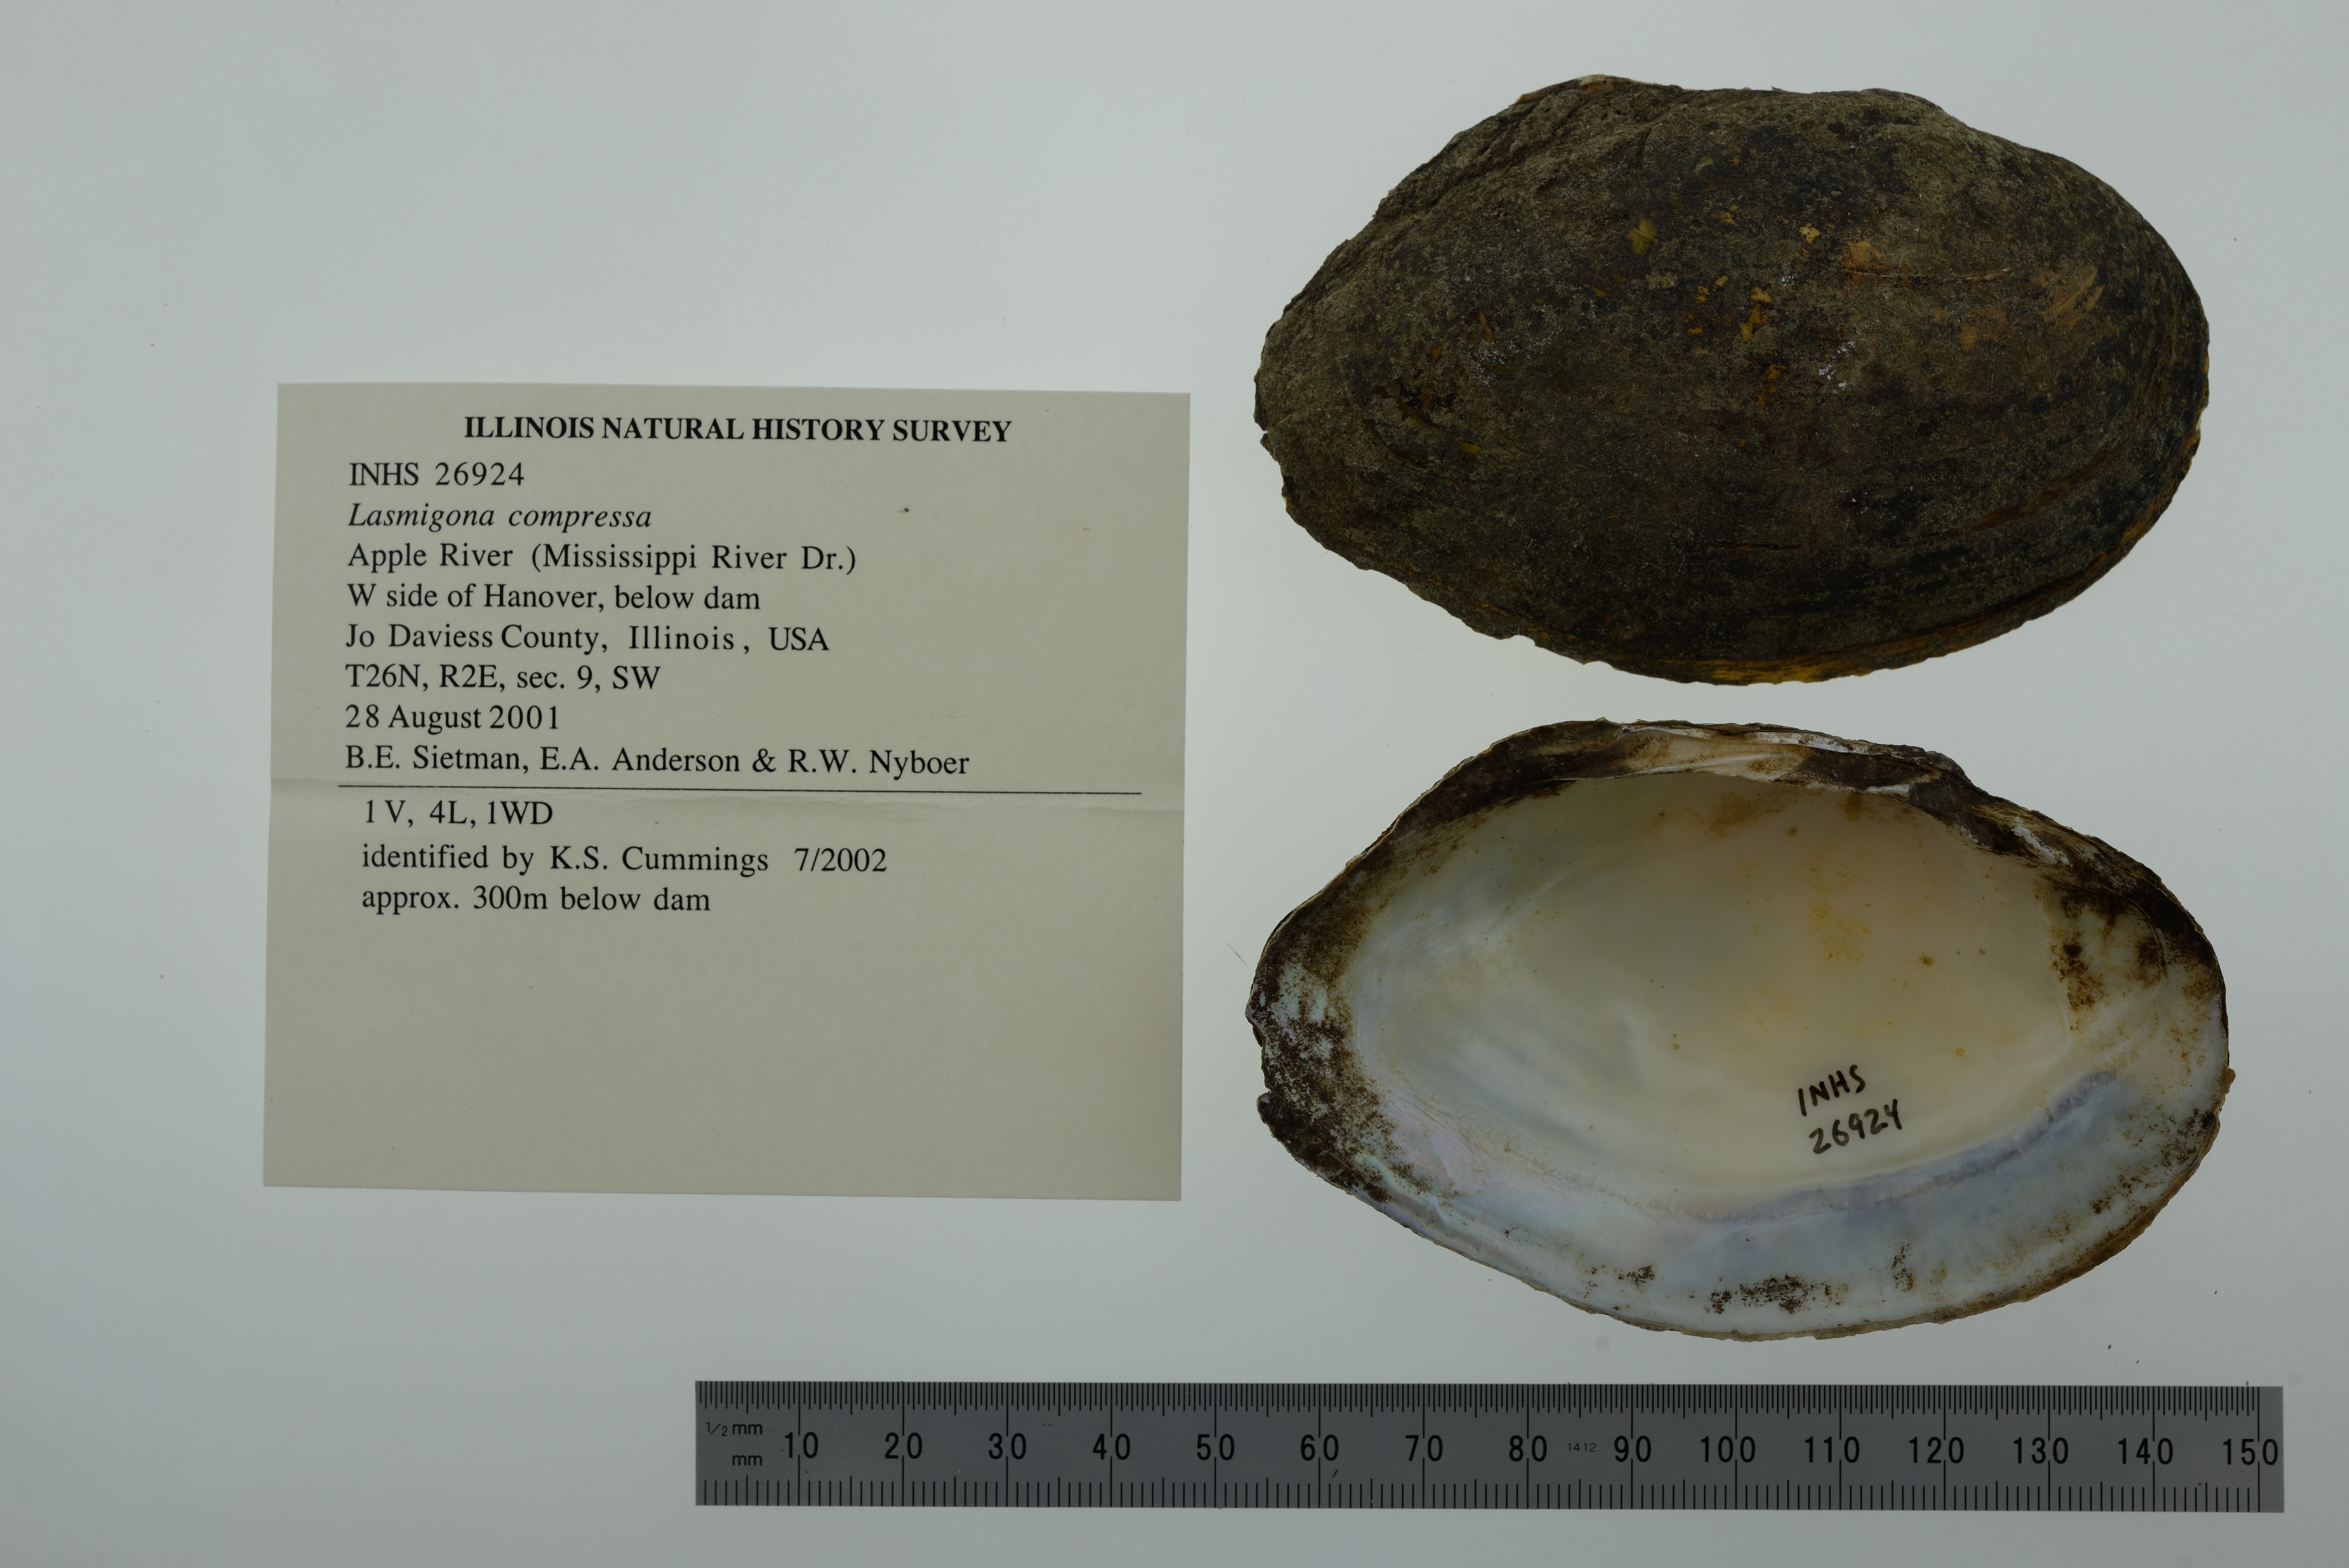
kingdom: Animalia
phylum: Mollusca
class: Bivalvia
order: Unionida
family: Unionidae
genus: Lasmigona
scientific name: Lasmigona compressa
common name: Creek heelsplitter
